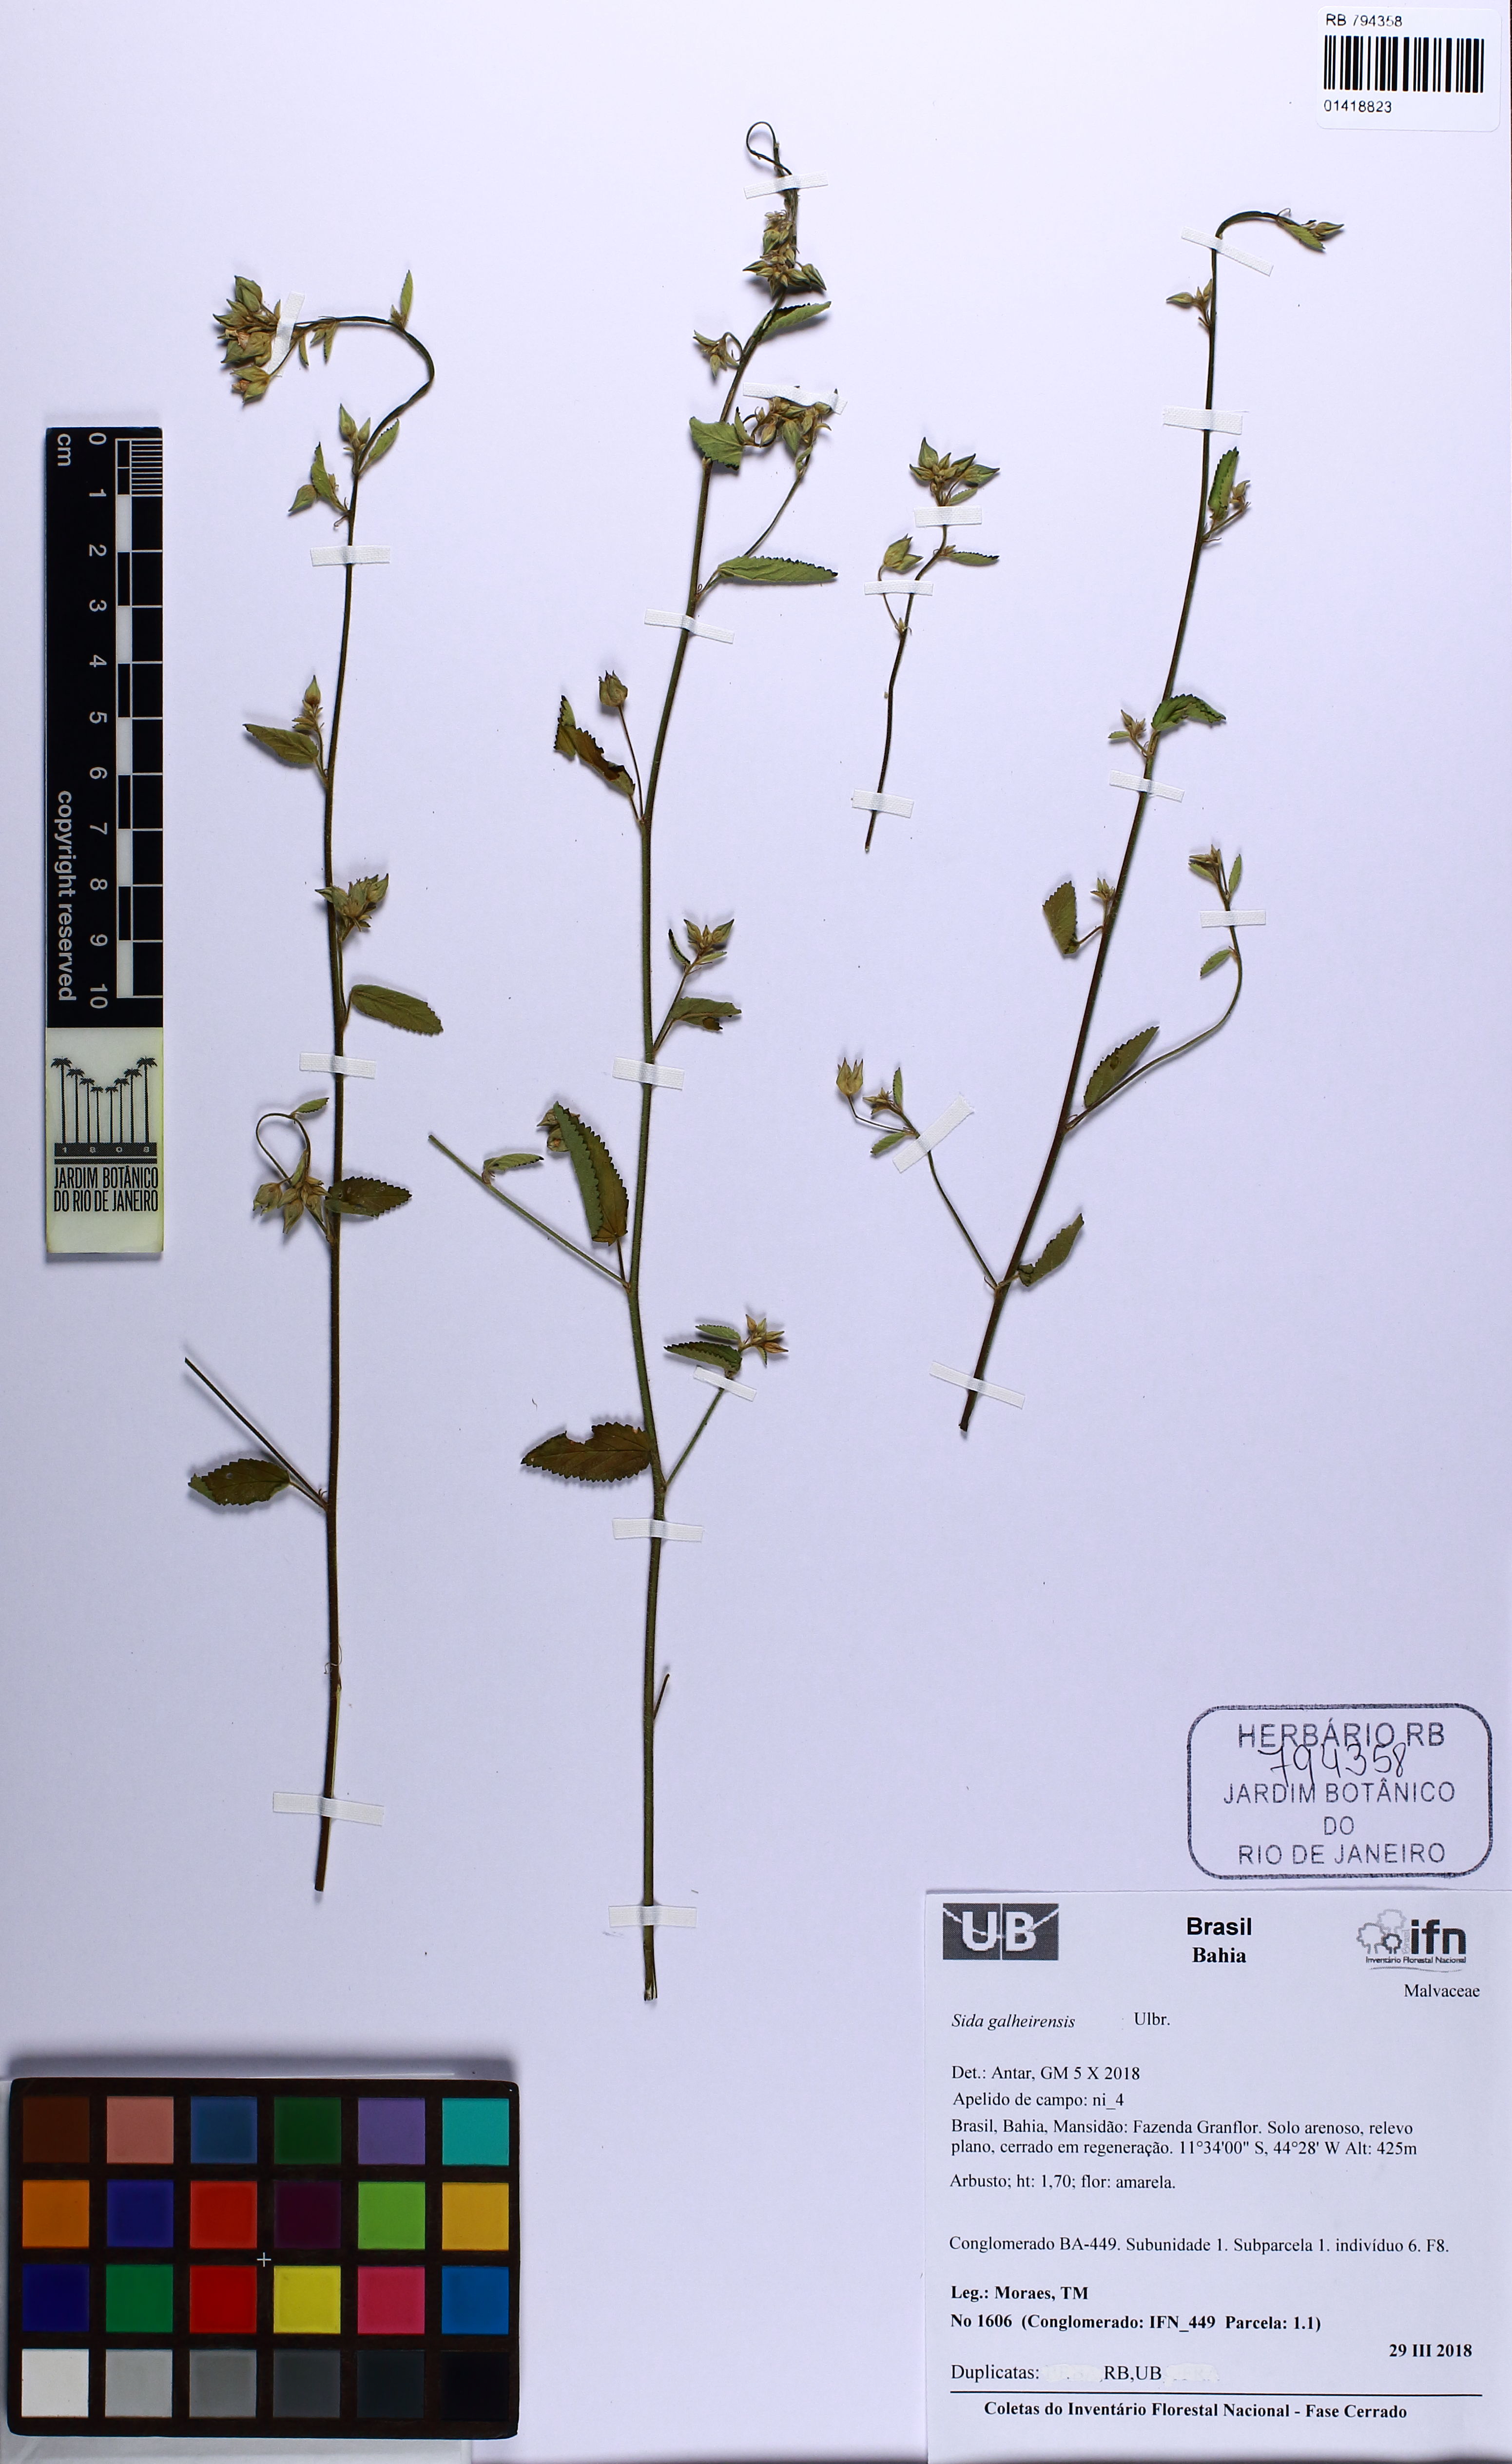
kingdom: Plantae
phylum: Tracheophyta
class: Magnoliopsida
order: Malvales
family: Malvaceae
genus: Sida
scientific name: Sida galheirensis
